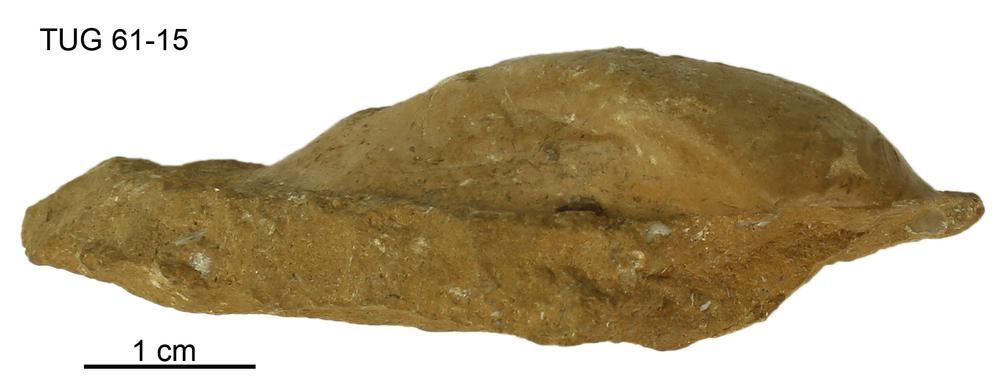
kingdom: Animalia
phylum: Mollusca
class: Bivalvia
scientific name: Bivalvia
